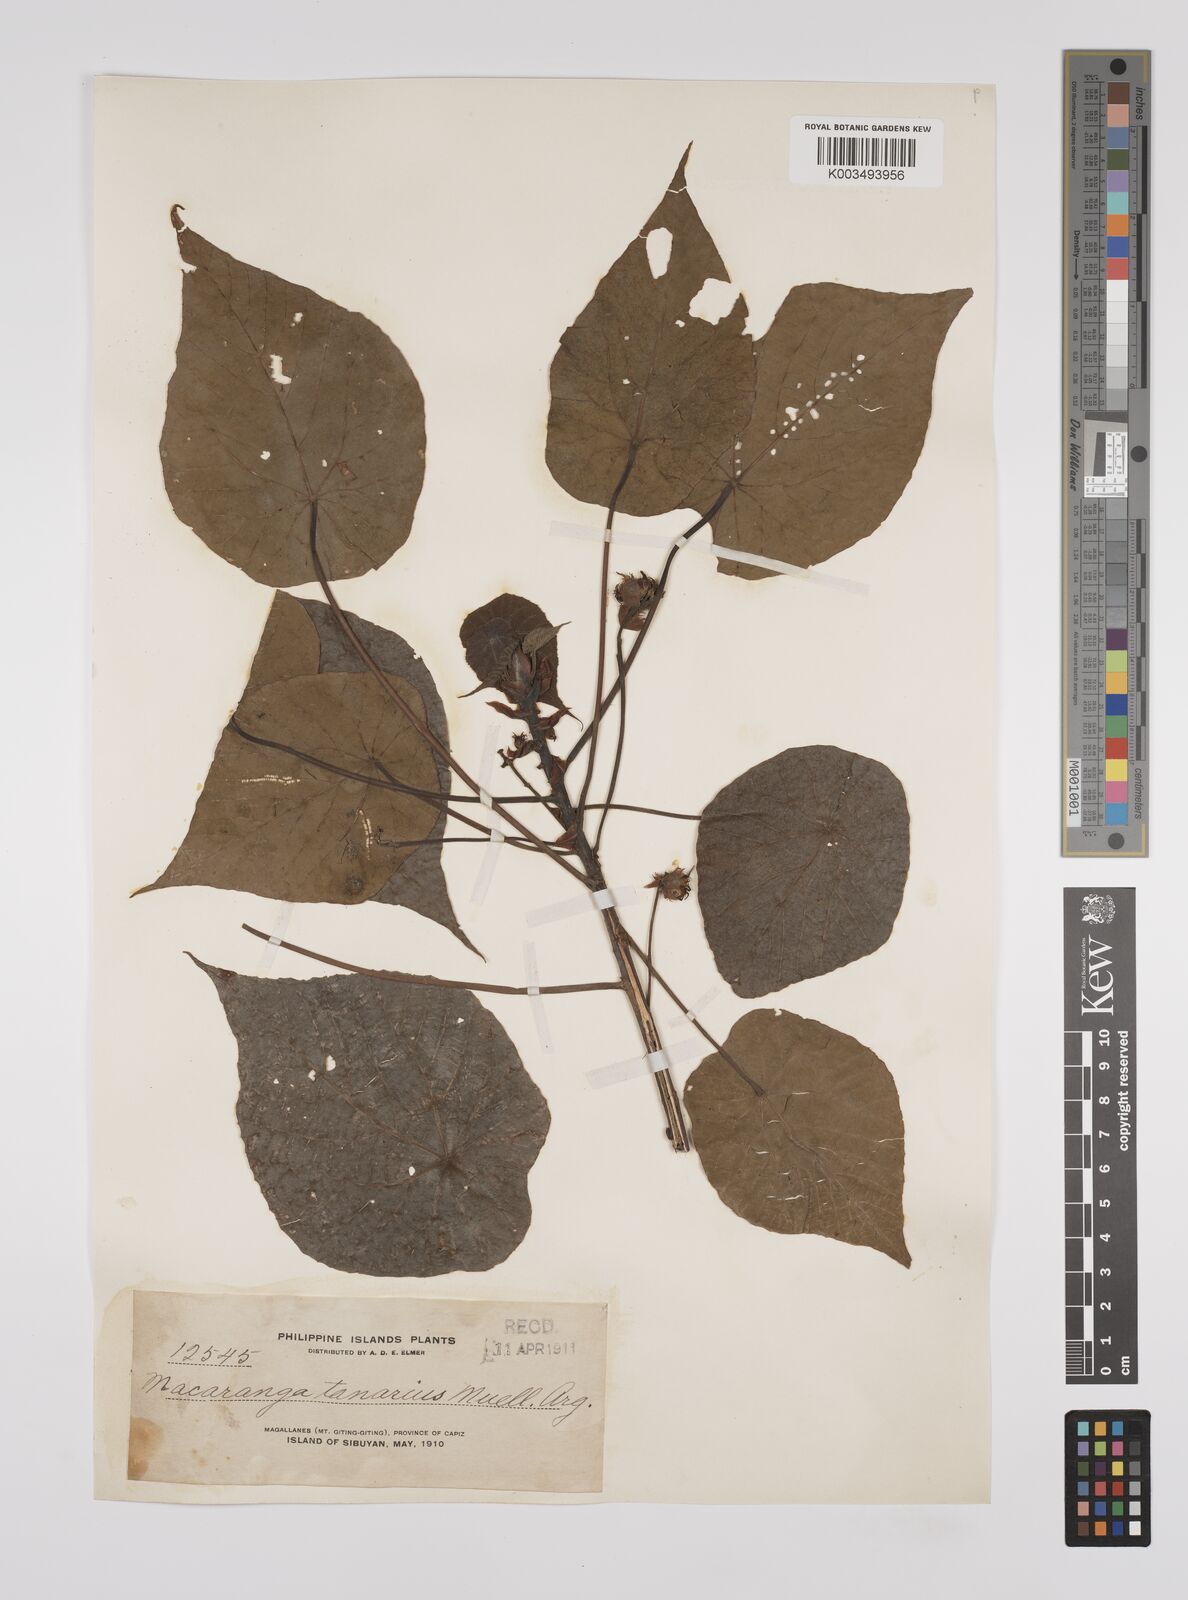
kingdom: Plantae
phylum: Tracheophyta
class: Magnoliopsida
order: Malpighiales
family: Euphorbiaceae
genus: Macaranga
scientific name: Macaranga tanarius
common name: Parasol leaf tree
